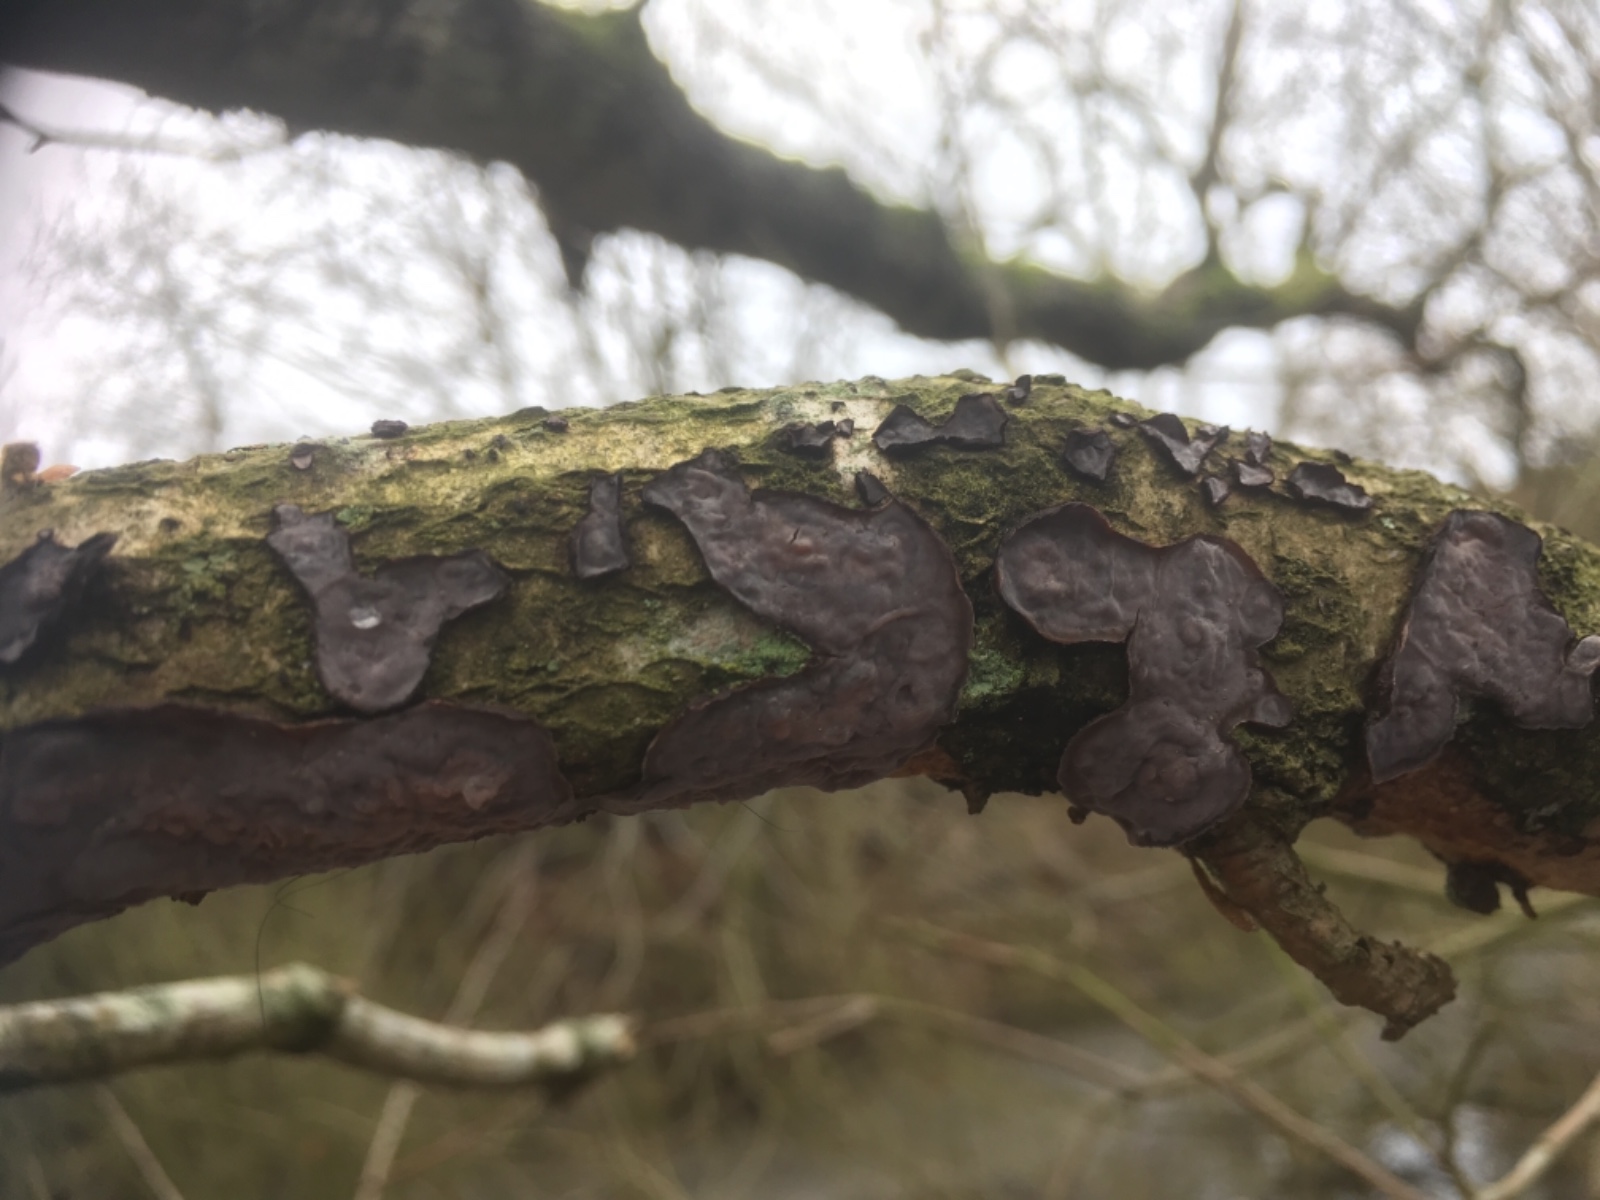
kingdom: Fungi
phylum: Basidiomycota
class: Agaricomycetes
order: Russulales
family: Peniophoraceae
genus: Peniophora
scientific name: Peniophora quercina
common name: ege-voksskind
